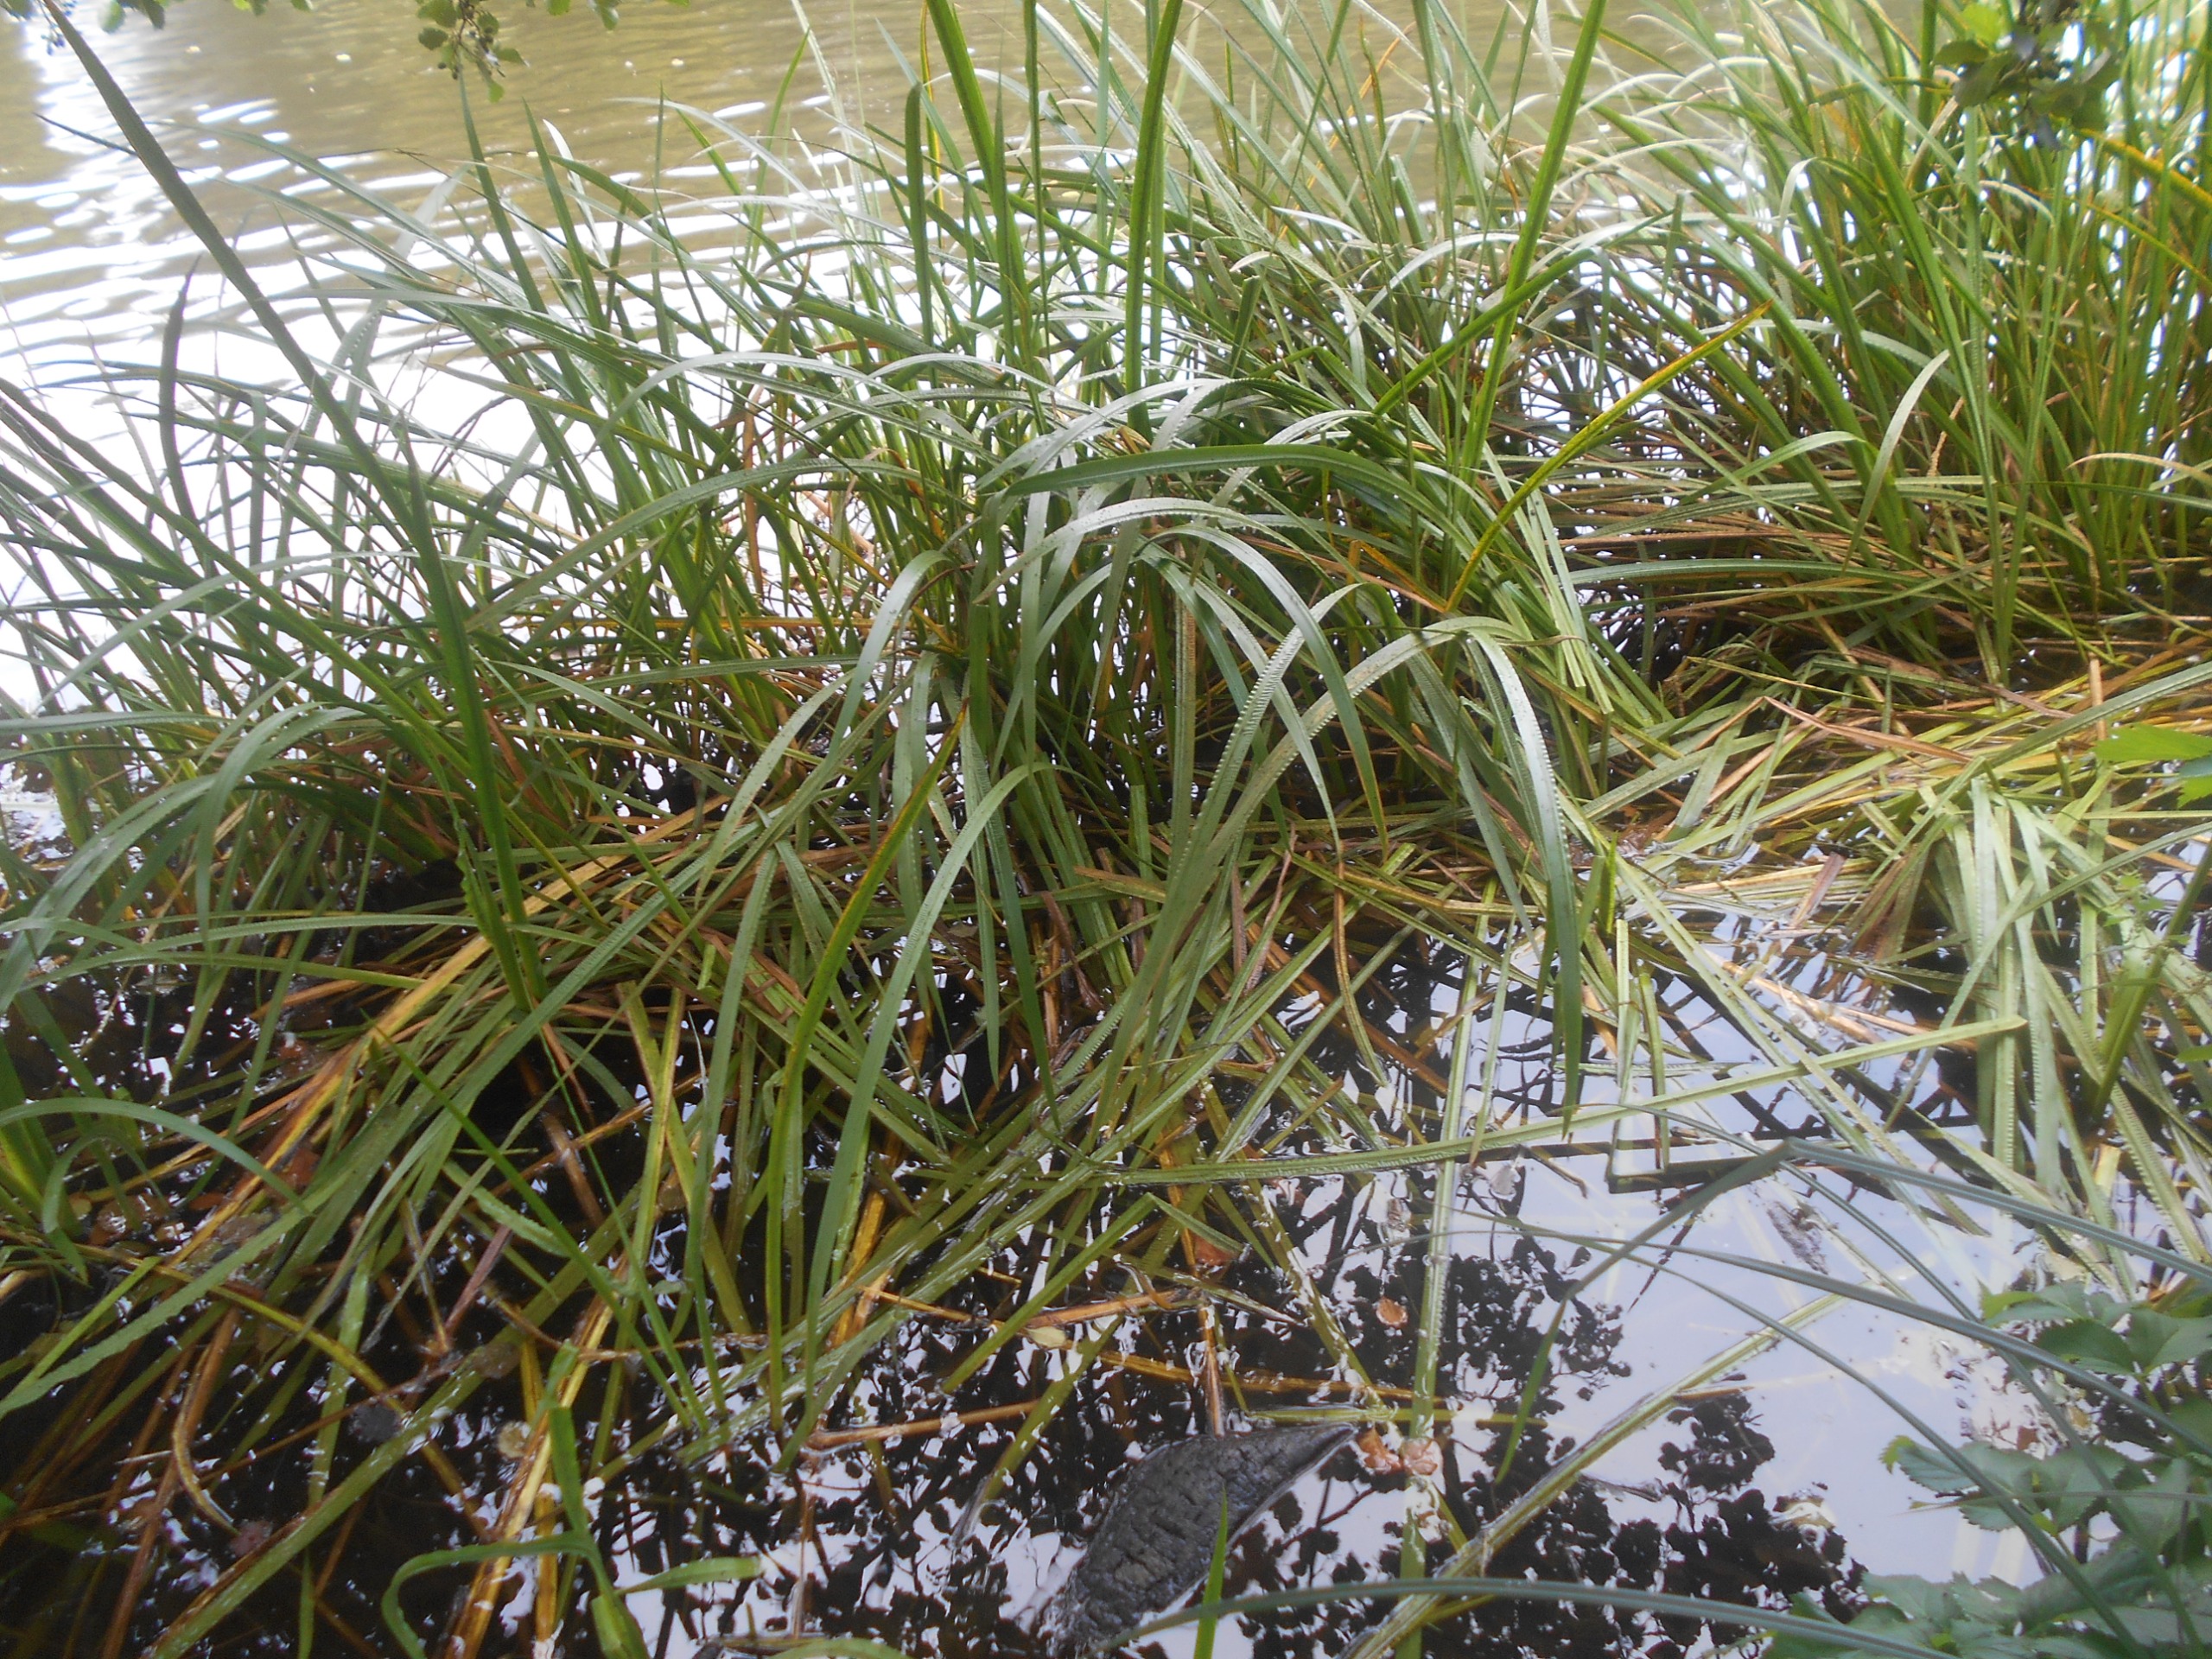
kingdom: Plantae
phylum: Tracheophyta
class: Liliopsida
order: Acorales
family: Acoraceae
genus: Acorus
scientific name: Acorus calamus
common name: Kalmus
